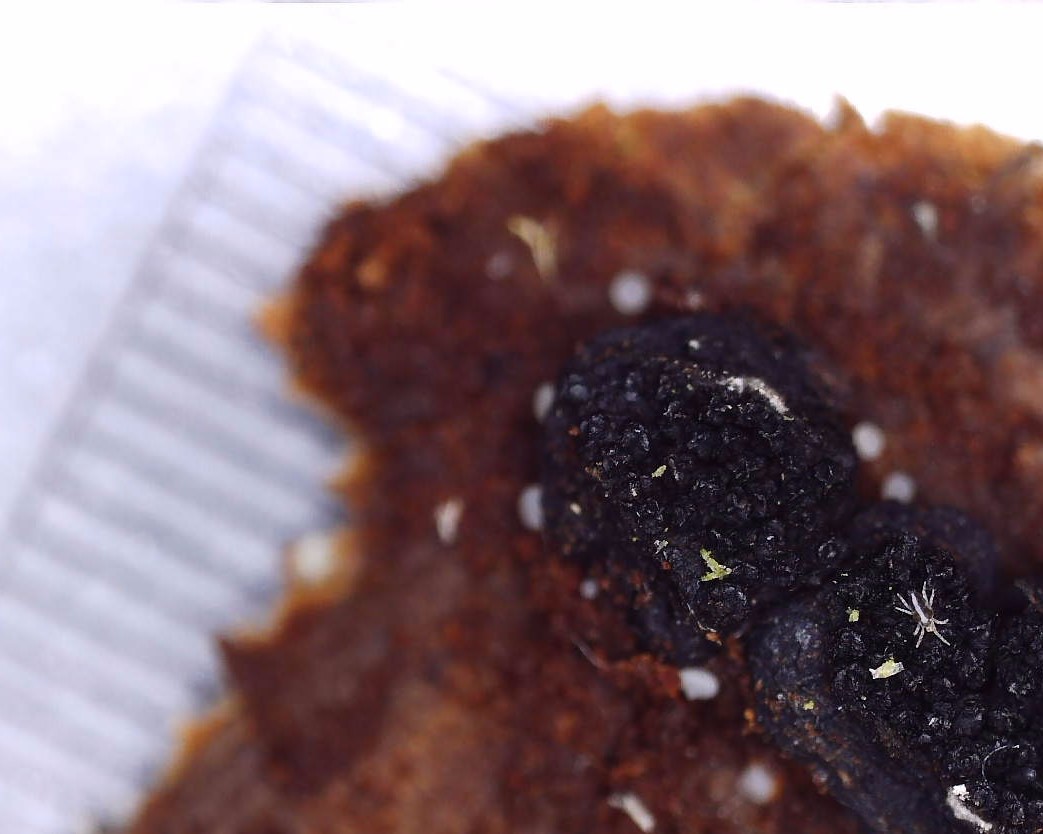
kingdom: Fungi
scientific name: Fungi
